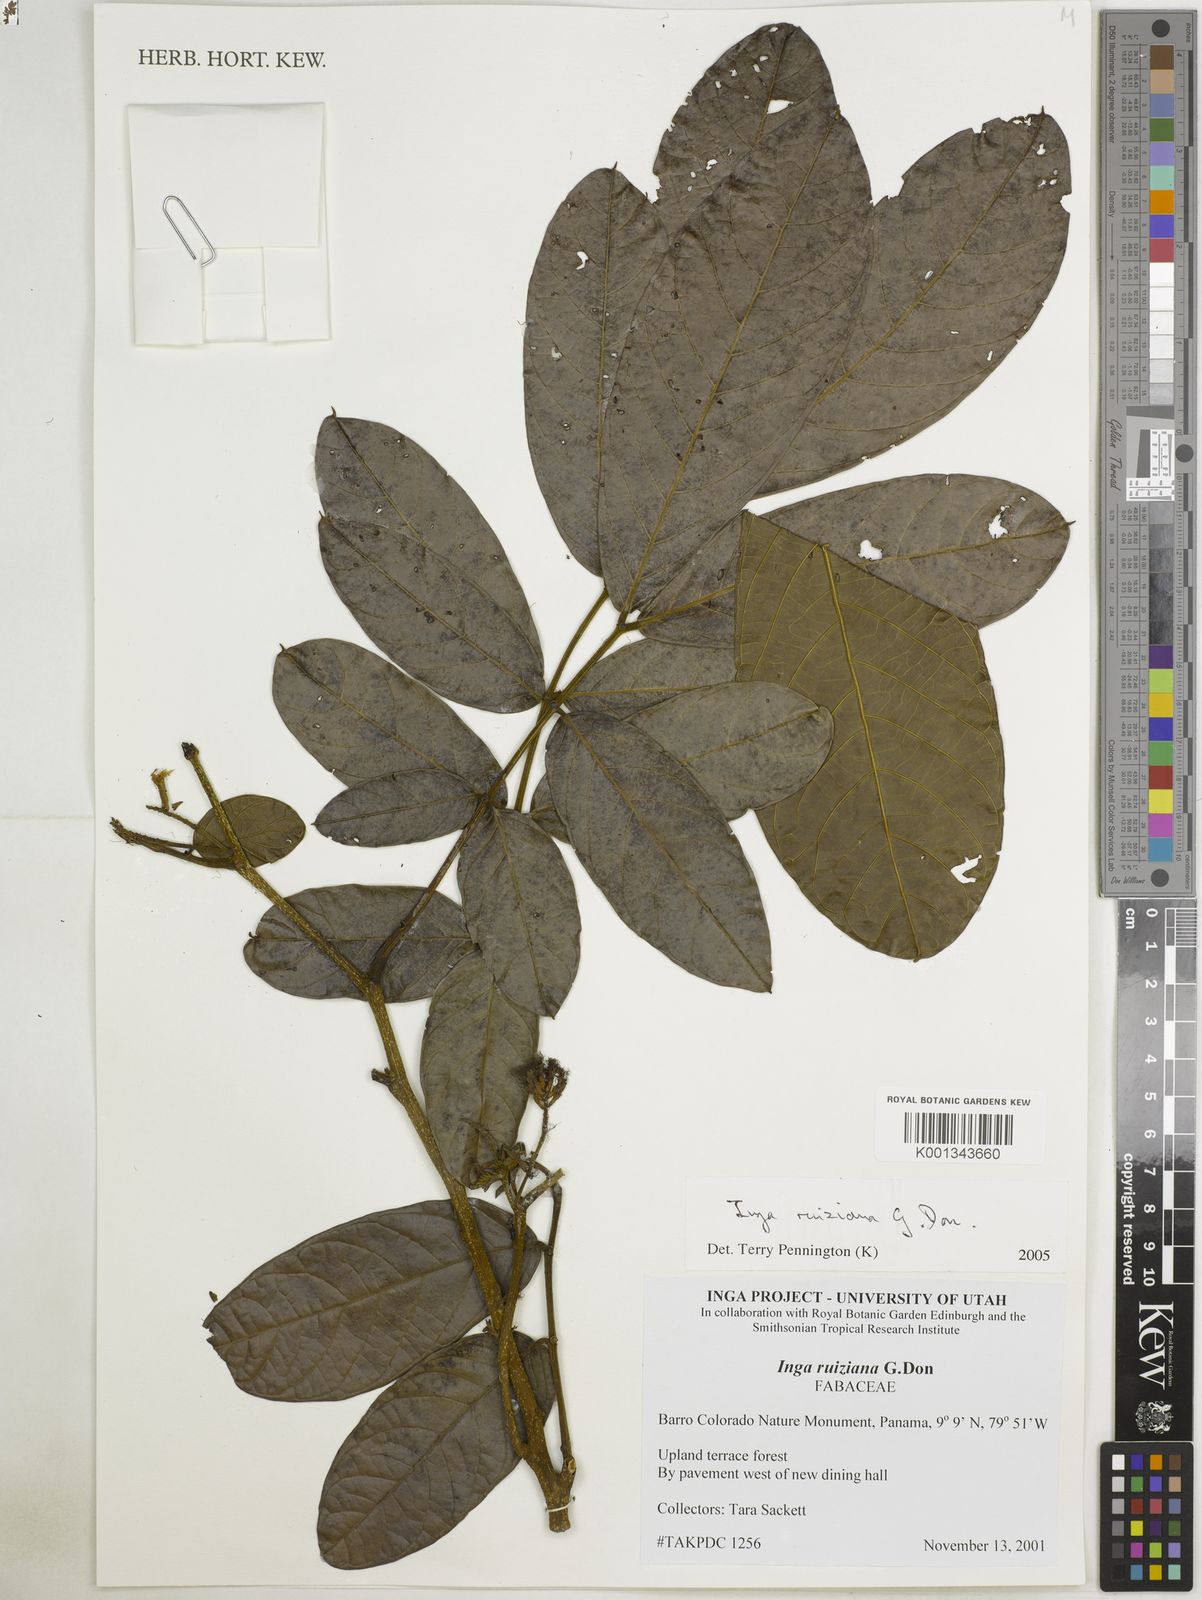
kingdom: Plantae
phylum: Tracheophyta
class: Magnoliopsida
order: Fabales
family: Fabaceae
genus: Inga
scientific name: Inga ruiziana
